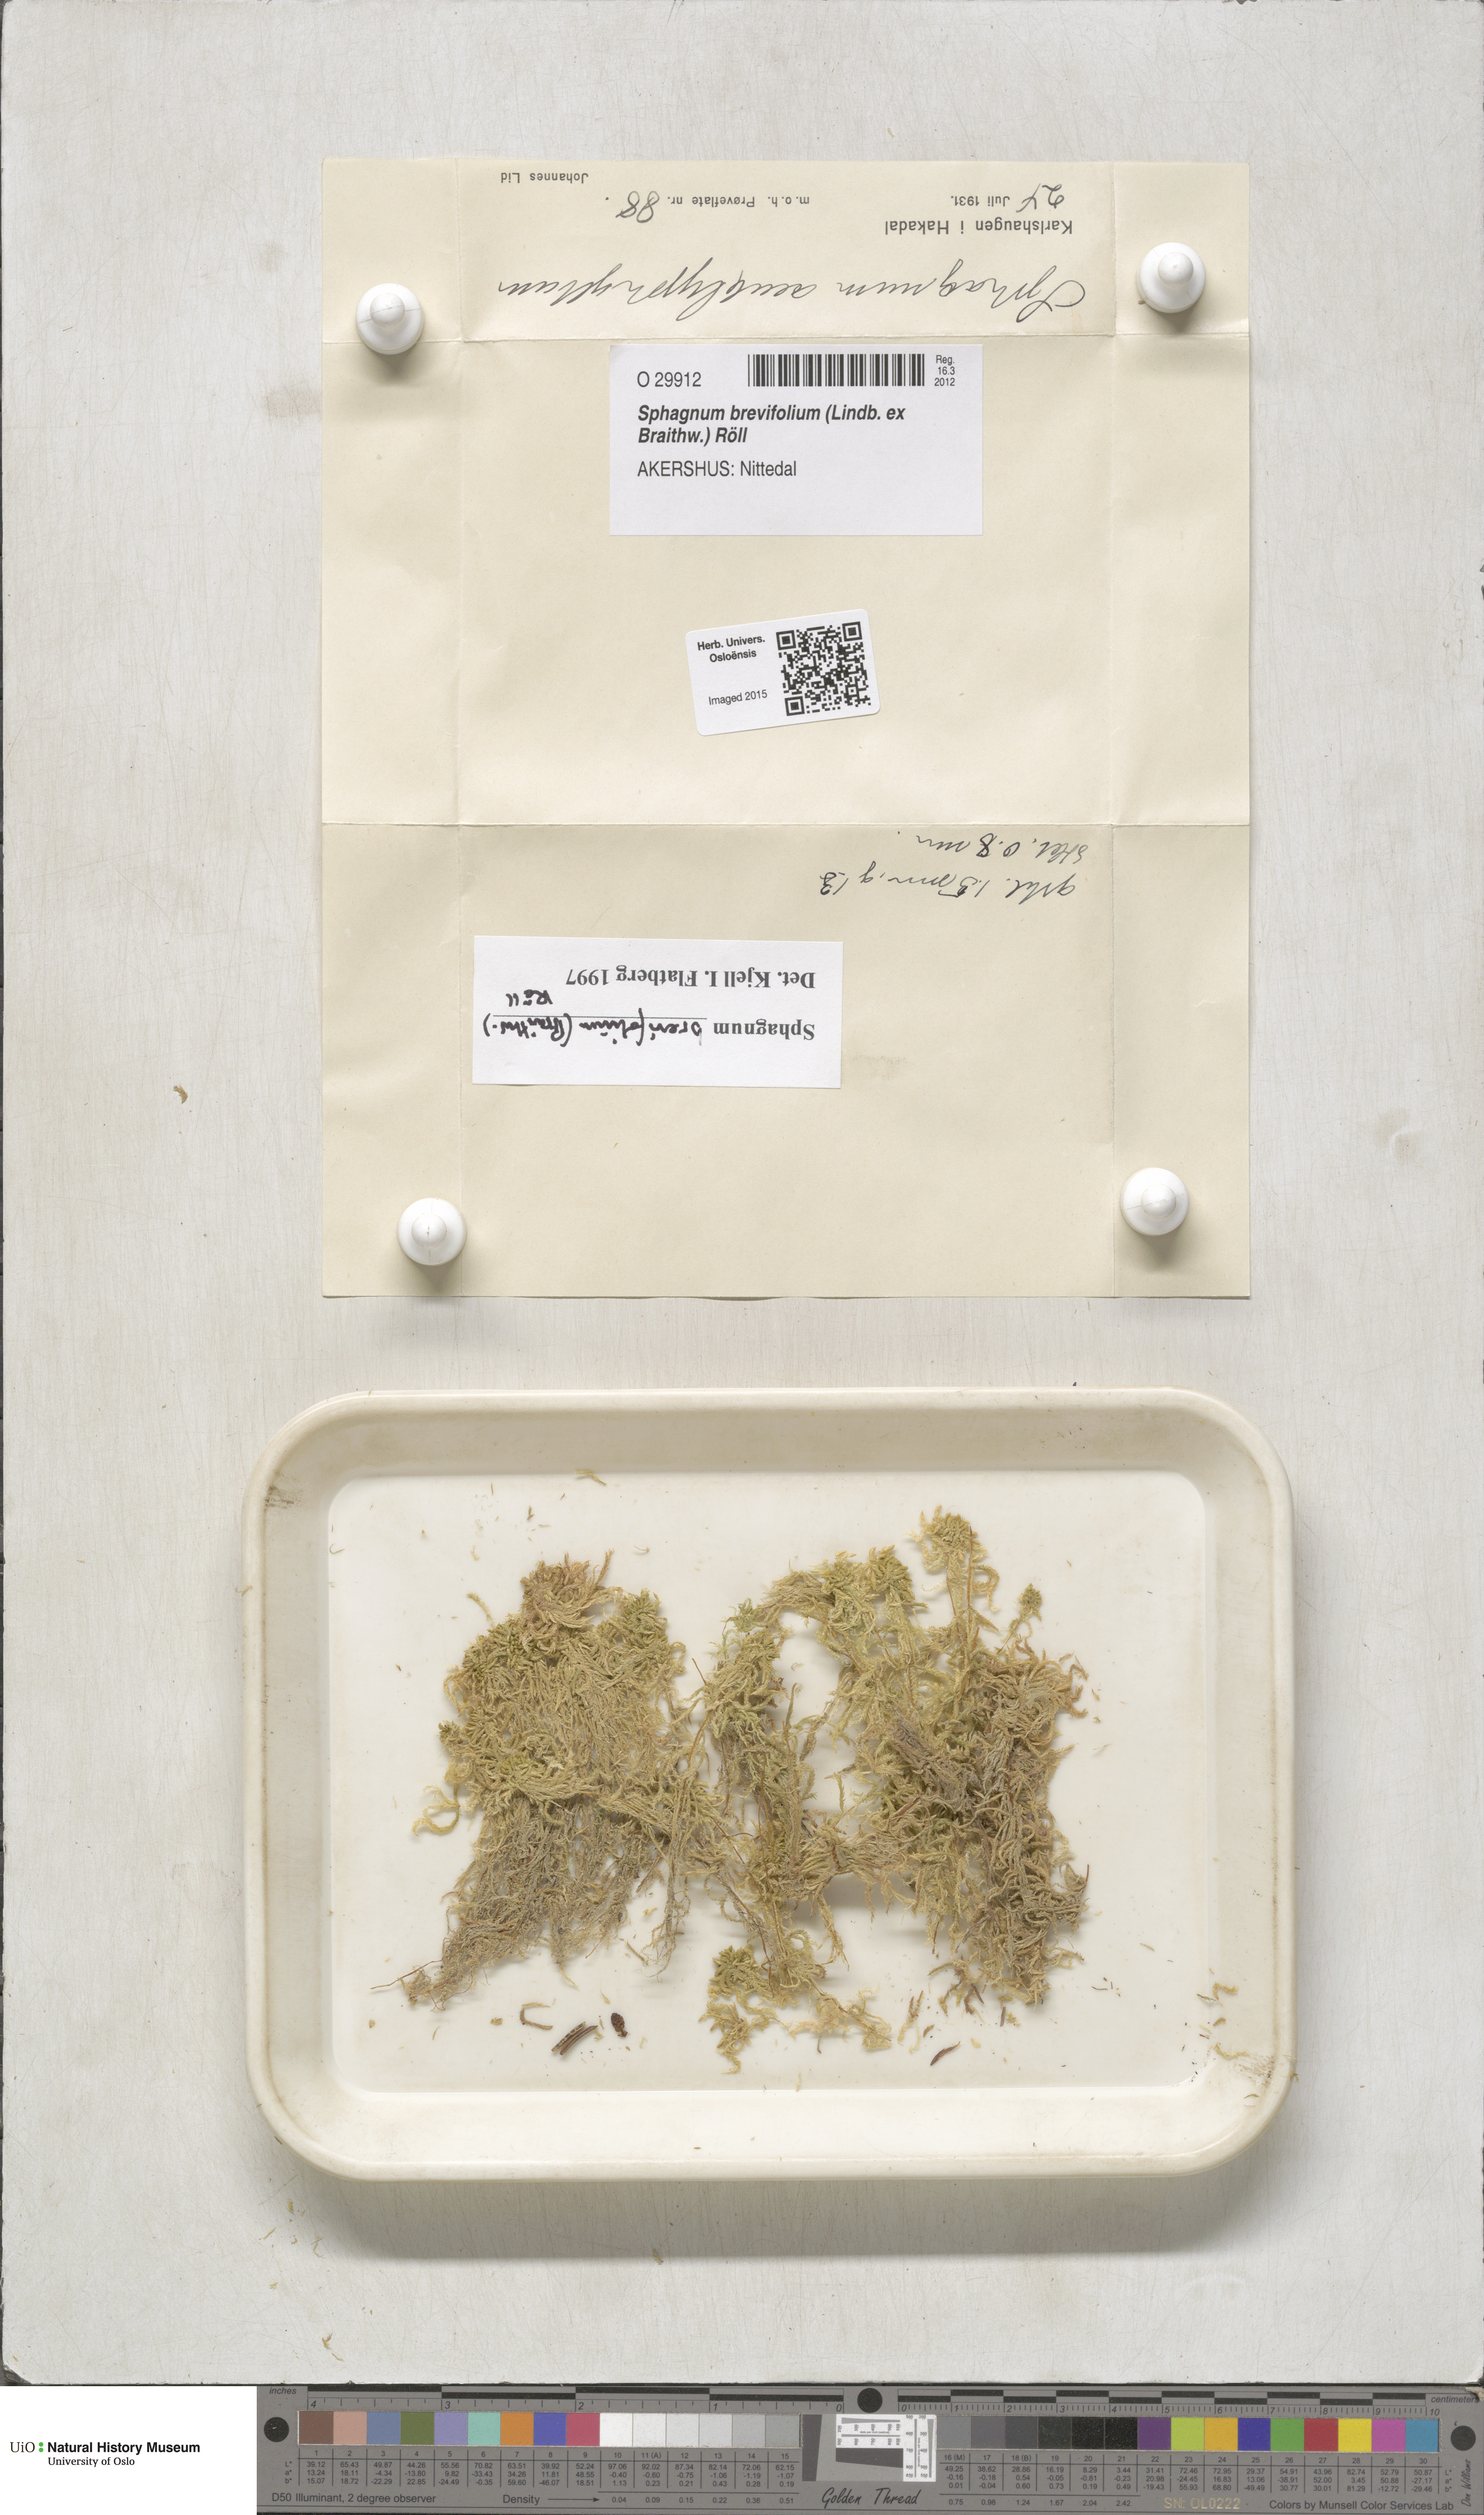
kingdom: Plantae
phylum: Bryophyta
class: Sphagnopsida
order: Sphagnales
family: Sphagnaceae
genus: Sphagnum
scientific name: Sphagnum fallax
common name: Flat-top peat moss
